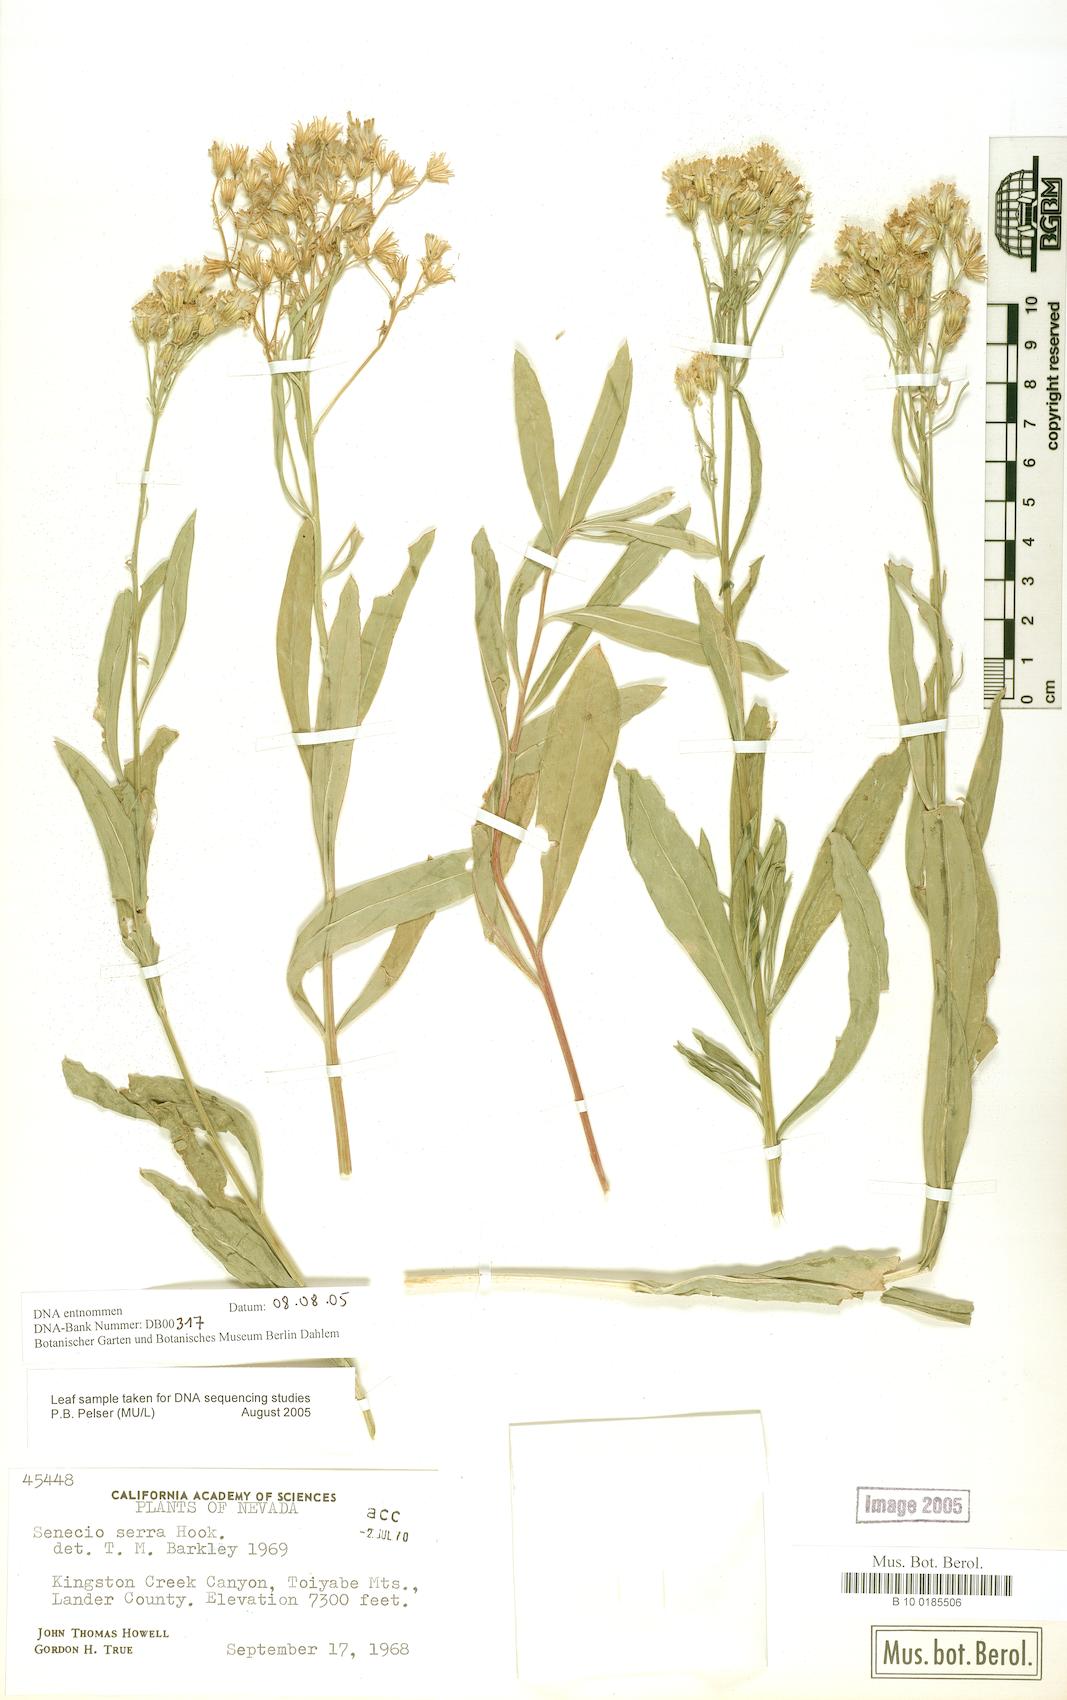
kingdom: Plantae
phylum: Tracheophyta
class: Magnoliopsida
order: Asterales
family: Asteraceae
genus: Senecio
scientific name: Senecio serra
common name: Tall ragwort
